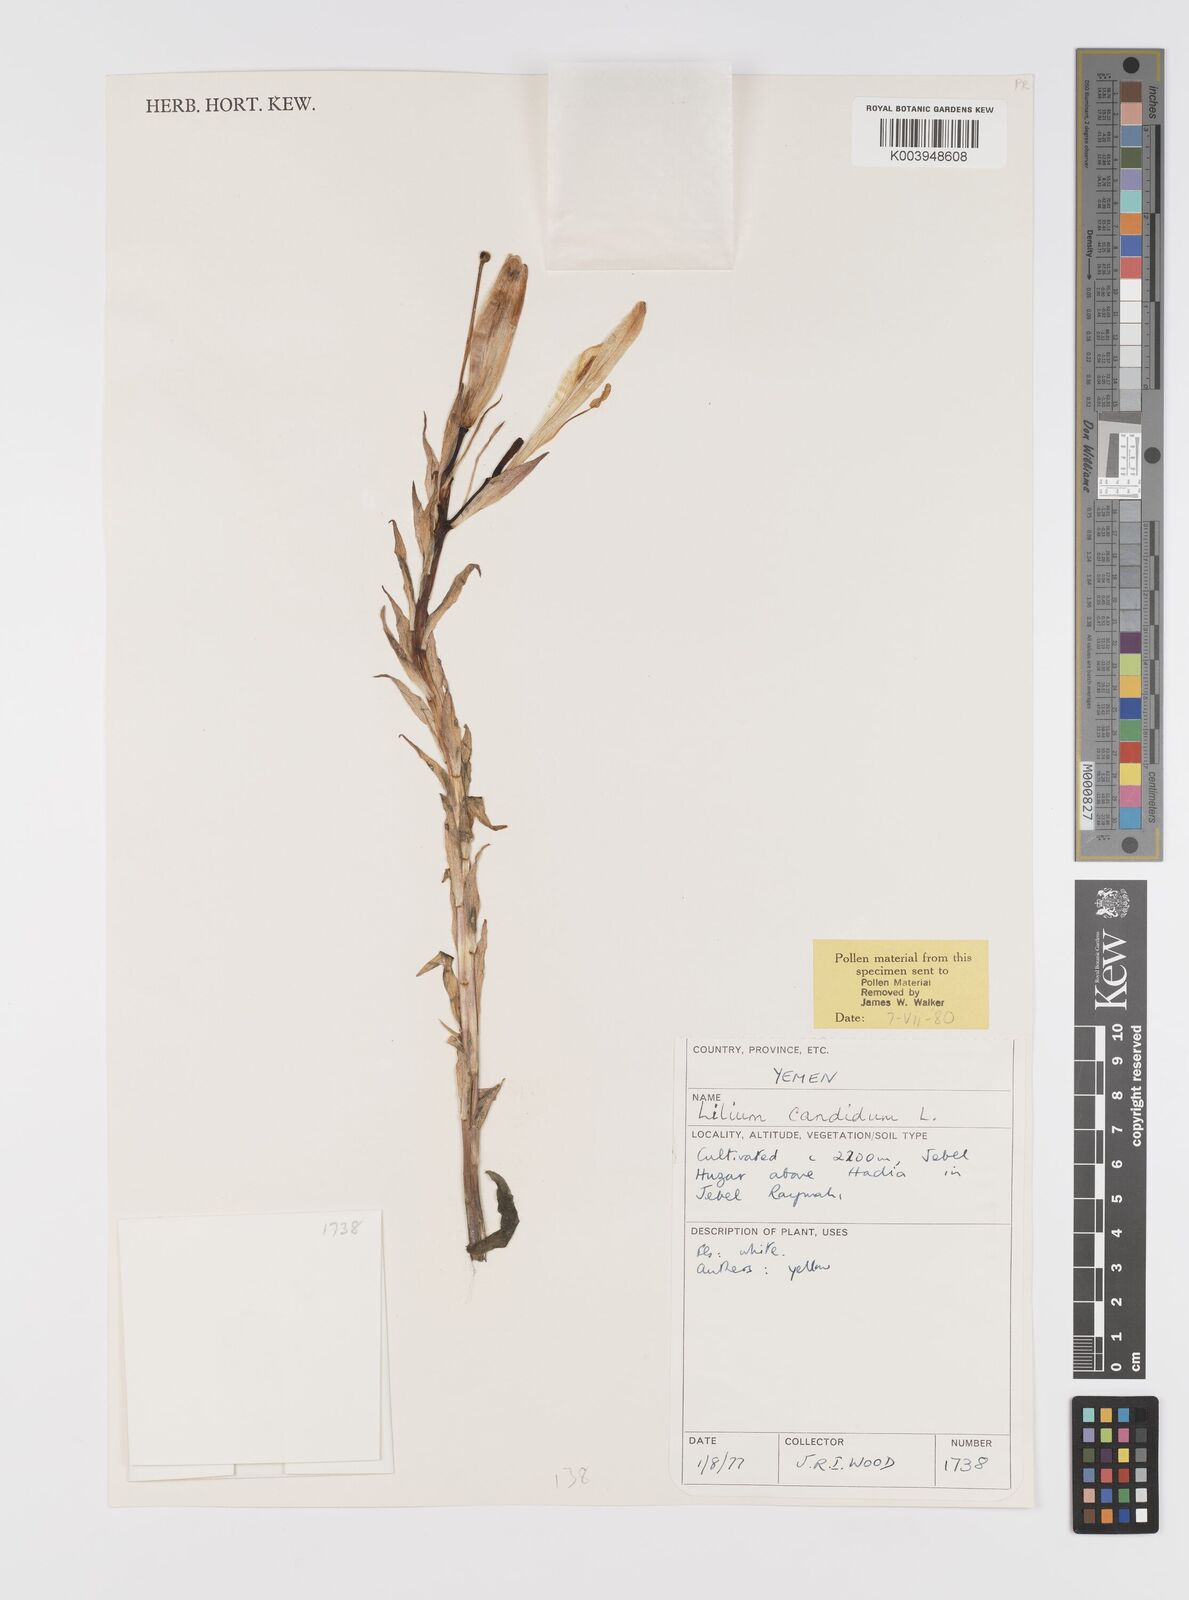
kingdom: Plantae
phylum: Tracheophyta
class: Liliopsida
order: Liliales
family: Liliaceae
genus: Lilium
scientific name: Lilium candidum
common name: Madonna lily
